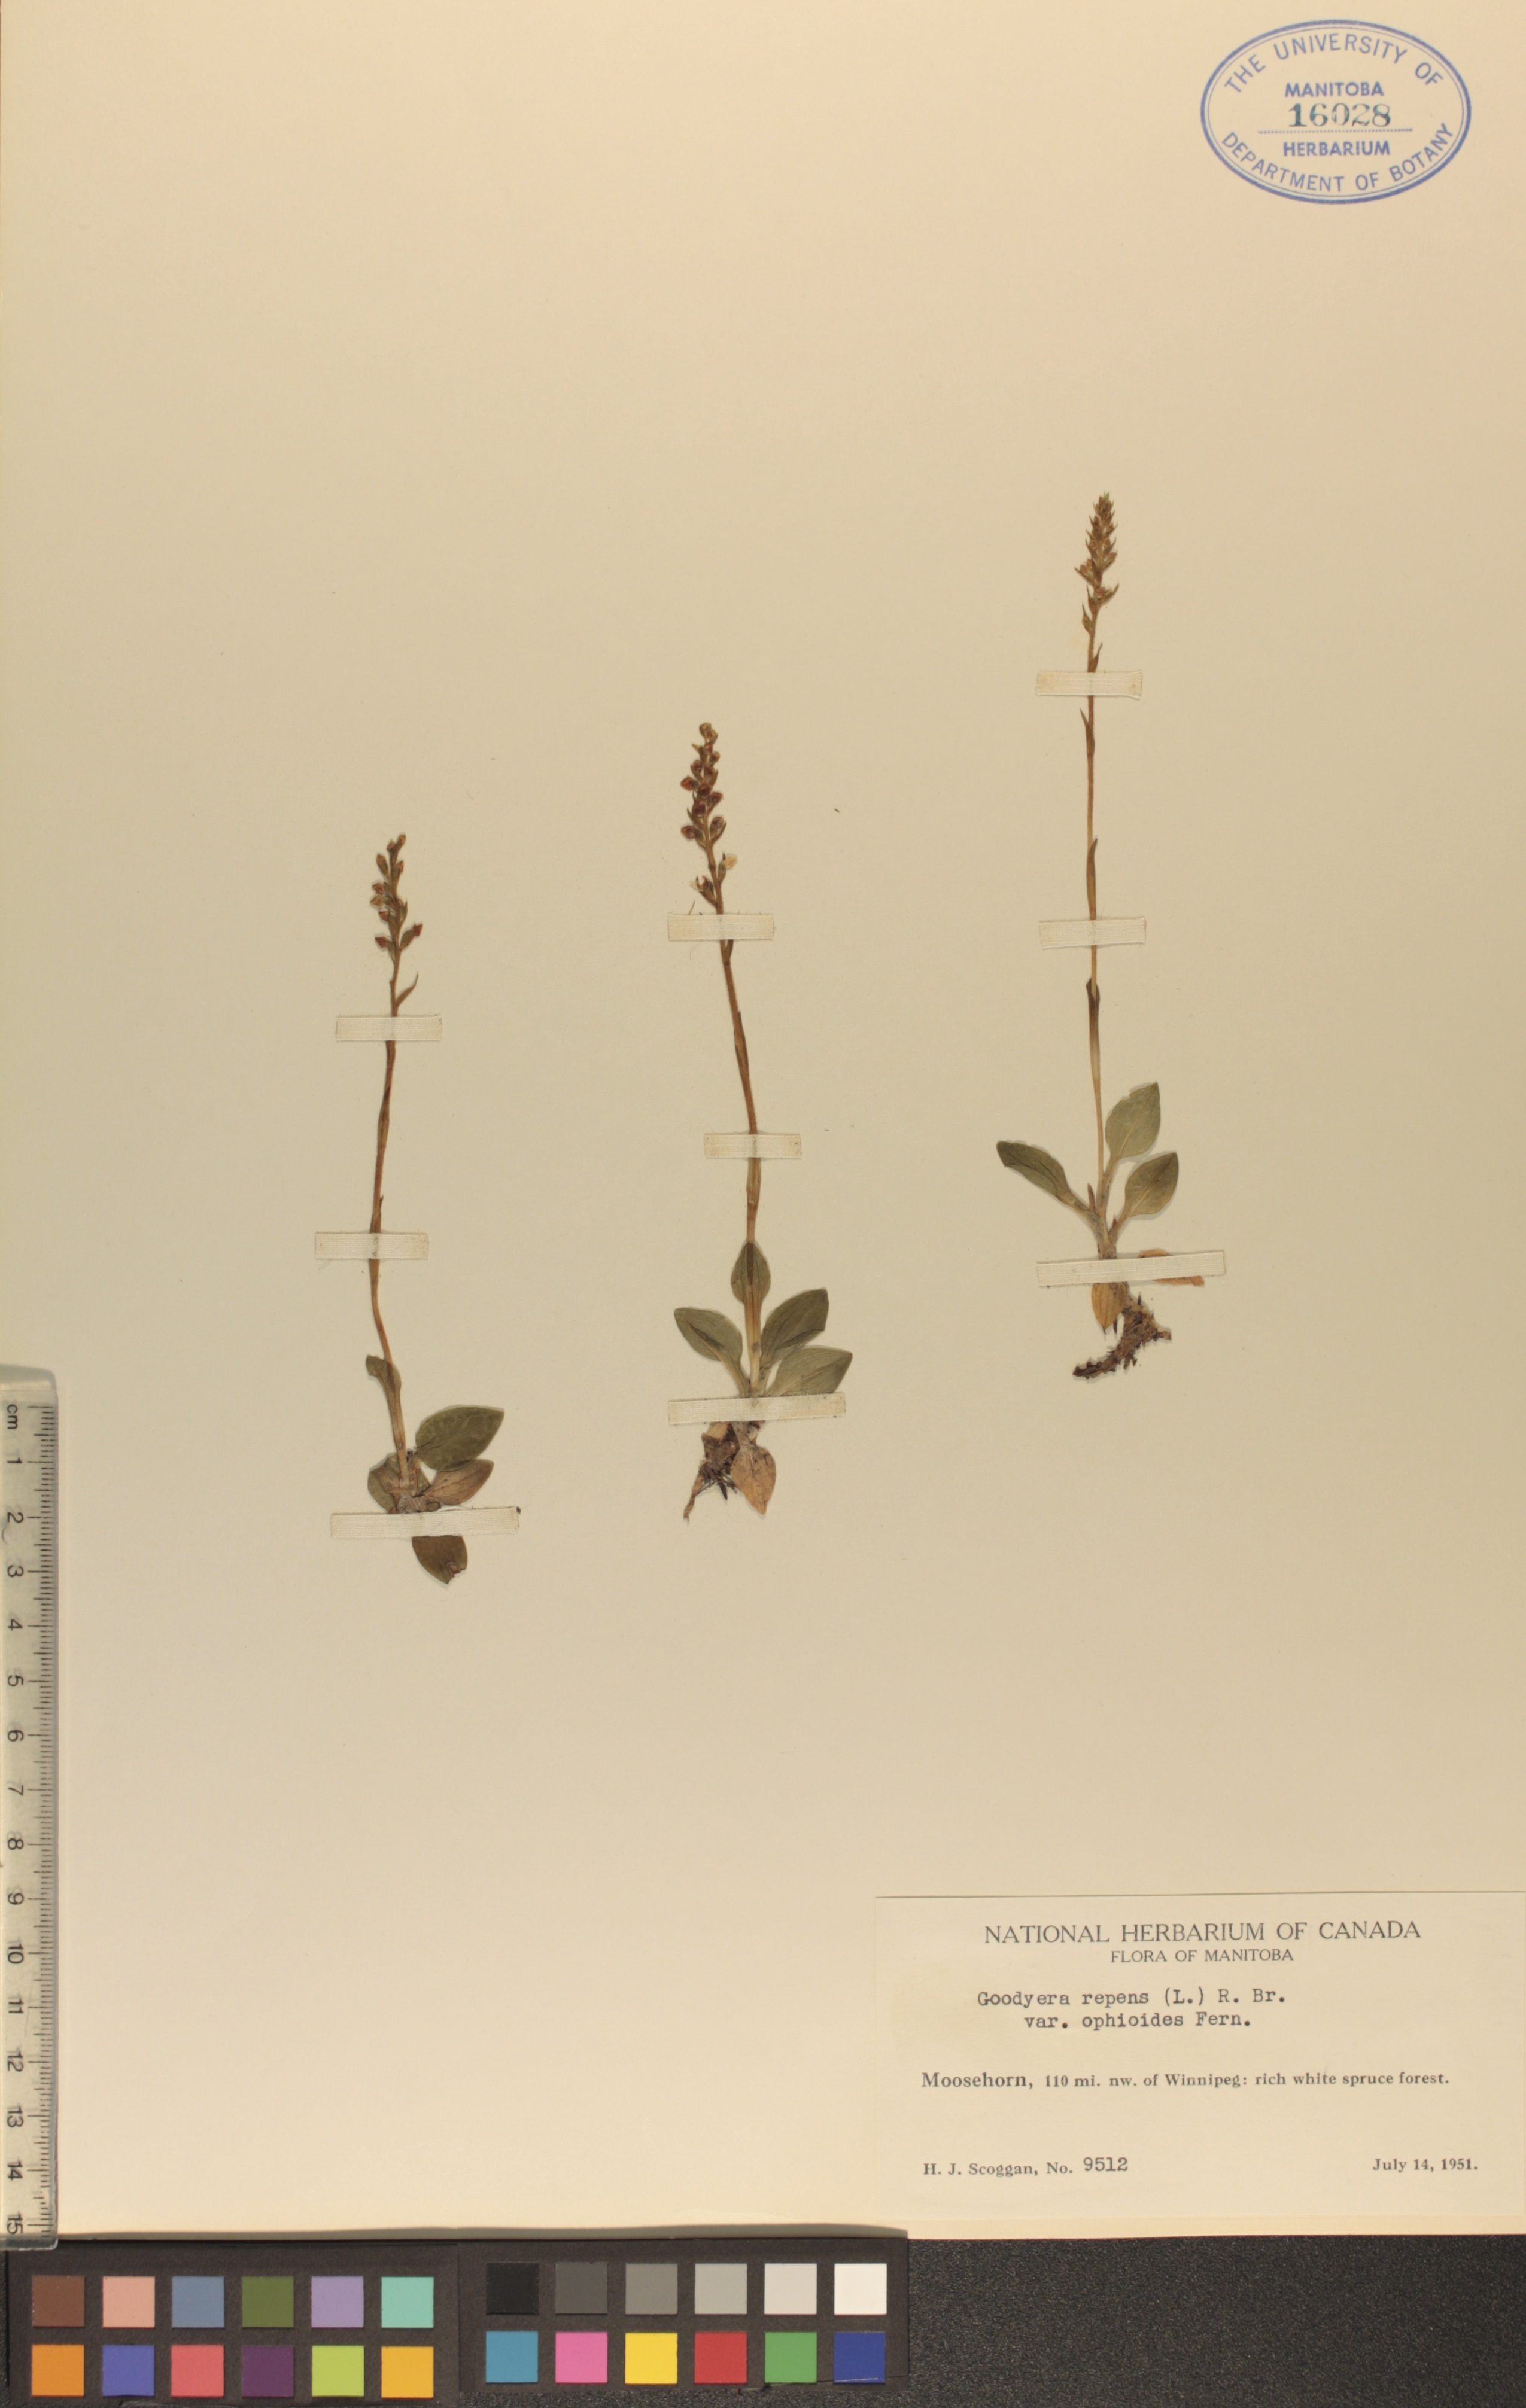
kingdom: Plantae
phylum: Tracheophyta
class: Liliopsida
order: Asparagales
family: Orchidaceae
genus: Goodyera
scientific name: Goodyera repens
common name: Creeping lady's-tresses
